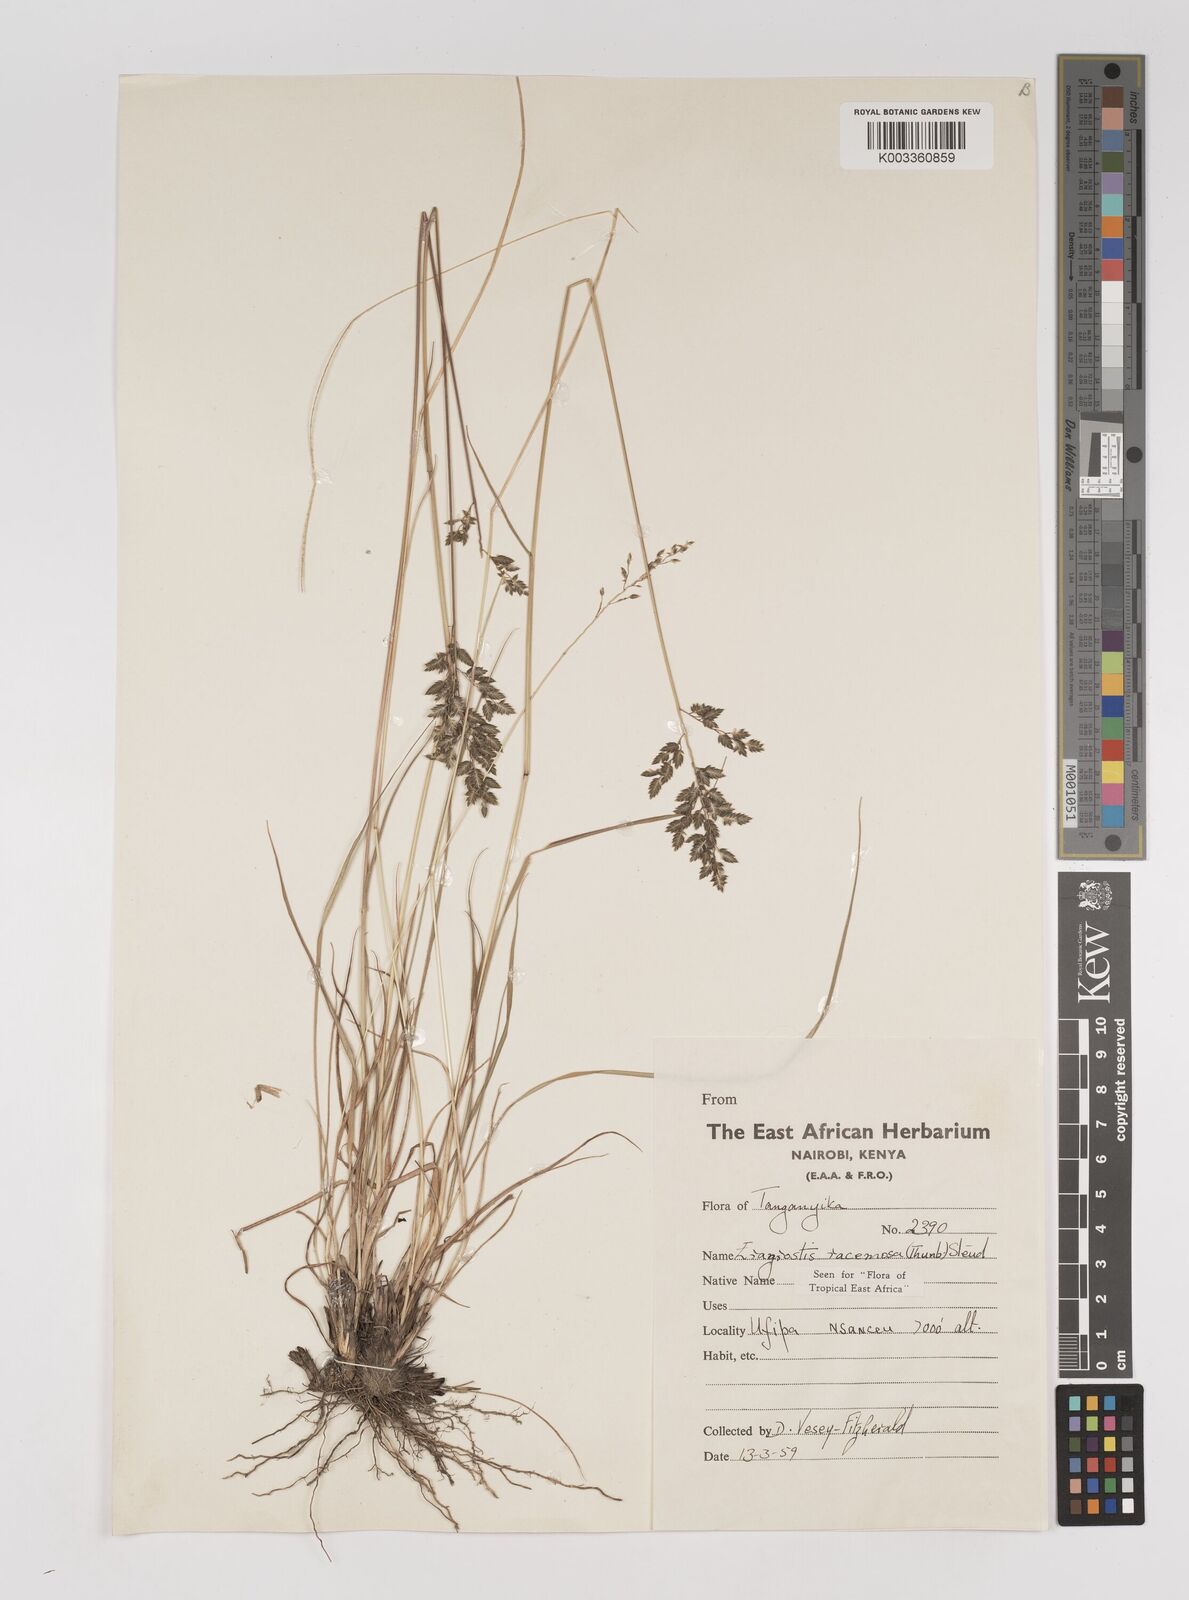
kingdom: Plantae
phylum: Tracheophyta
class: Liliopsida
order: Poales
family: Poaceae
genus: Eragrostis
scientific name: Eragrostis racemosa
